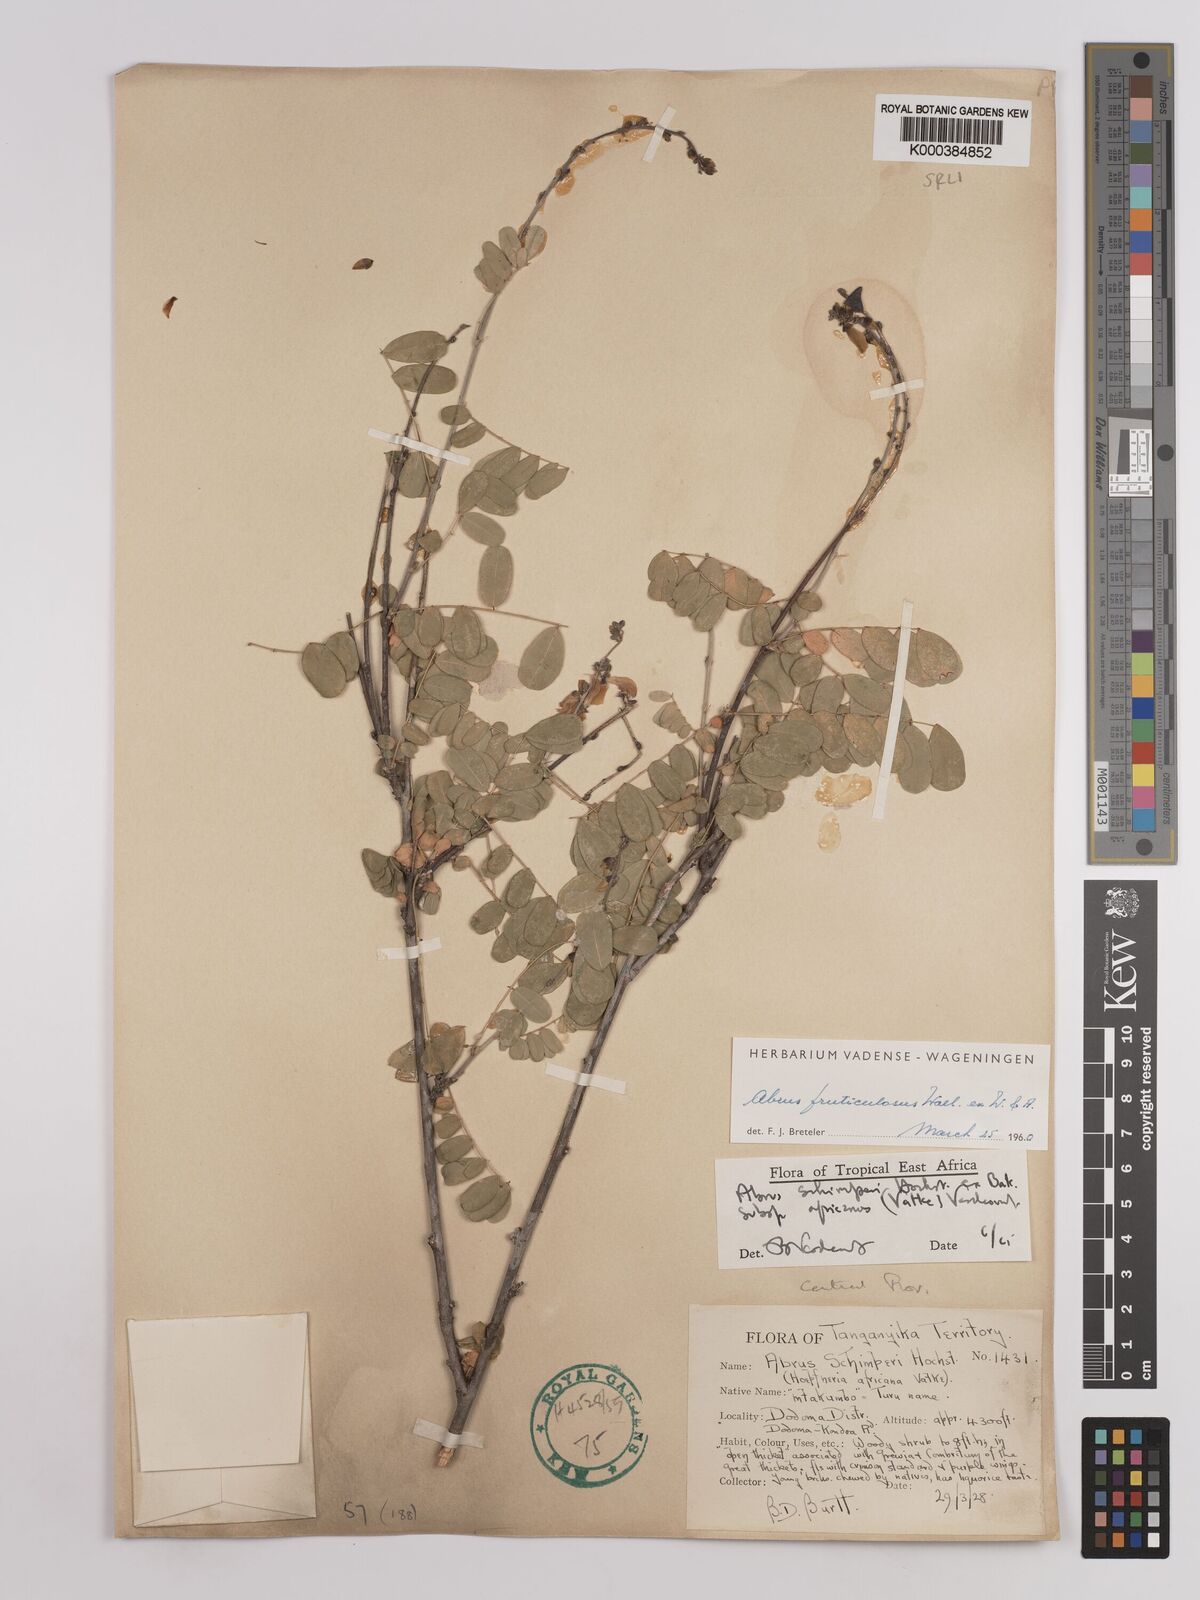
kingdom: Plantae
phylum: Tracheophyta
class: Magnoliopsida
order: Fabales
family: Fabaceae
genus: Abrus
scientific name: Abrus fruticulosus
